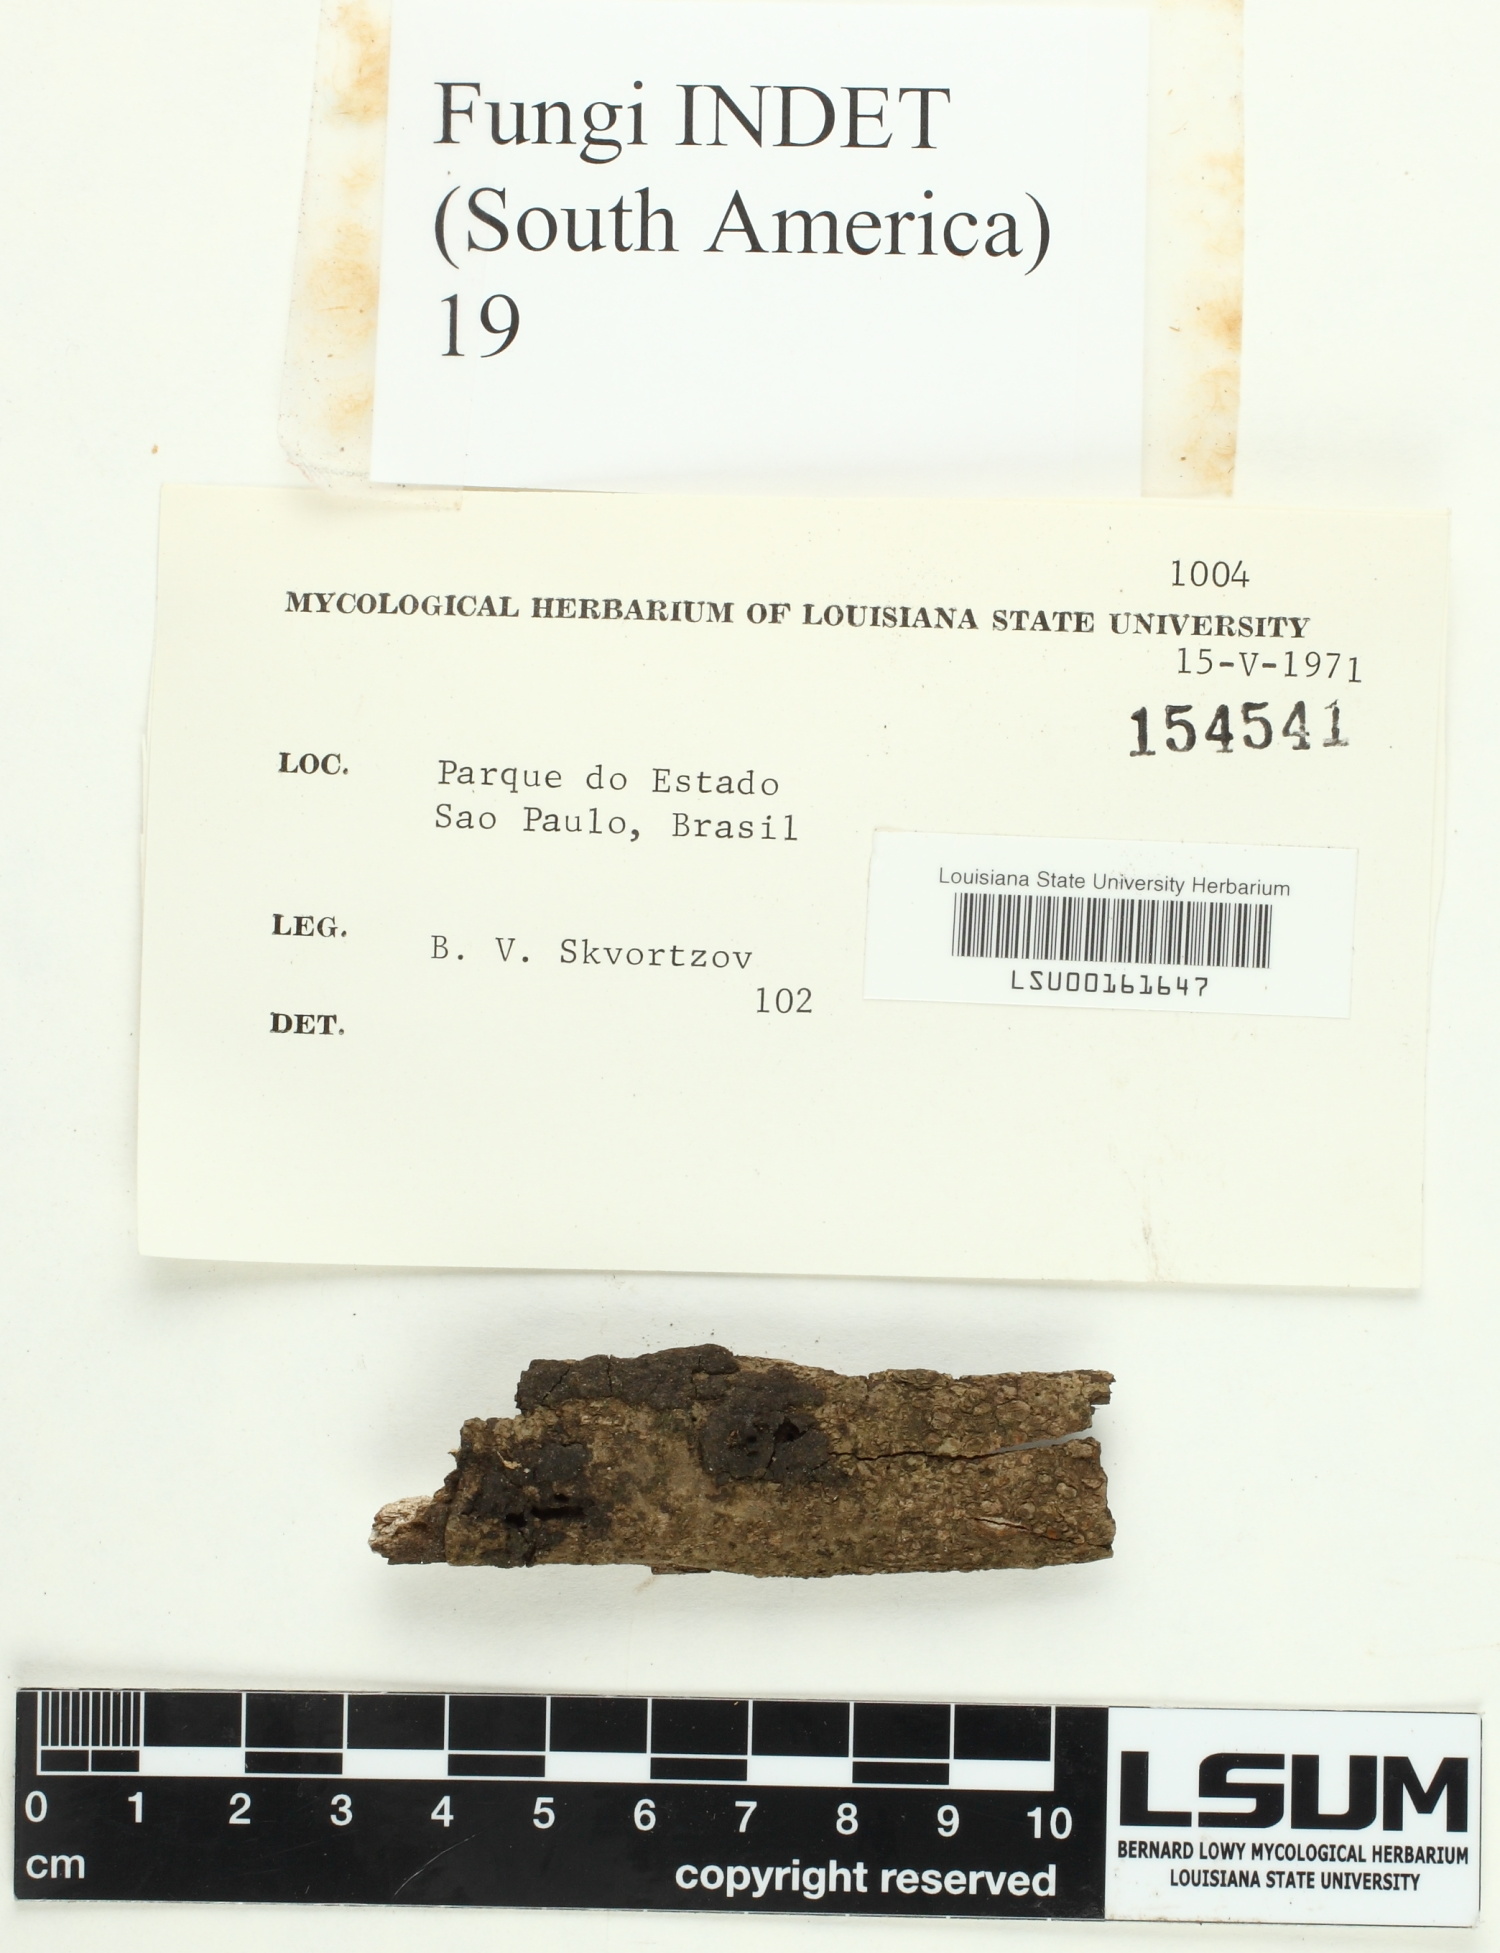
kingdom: Fungi
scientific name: Fungi
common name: Fungi
